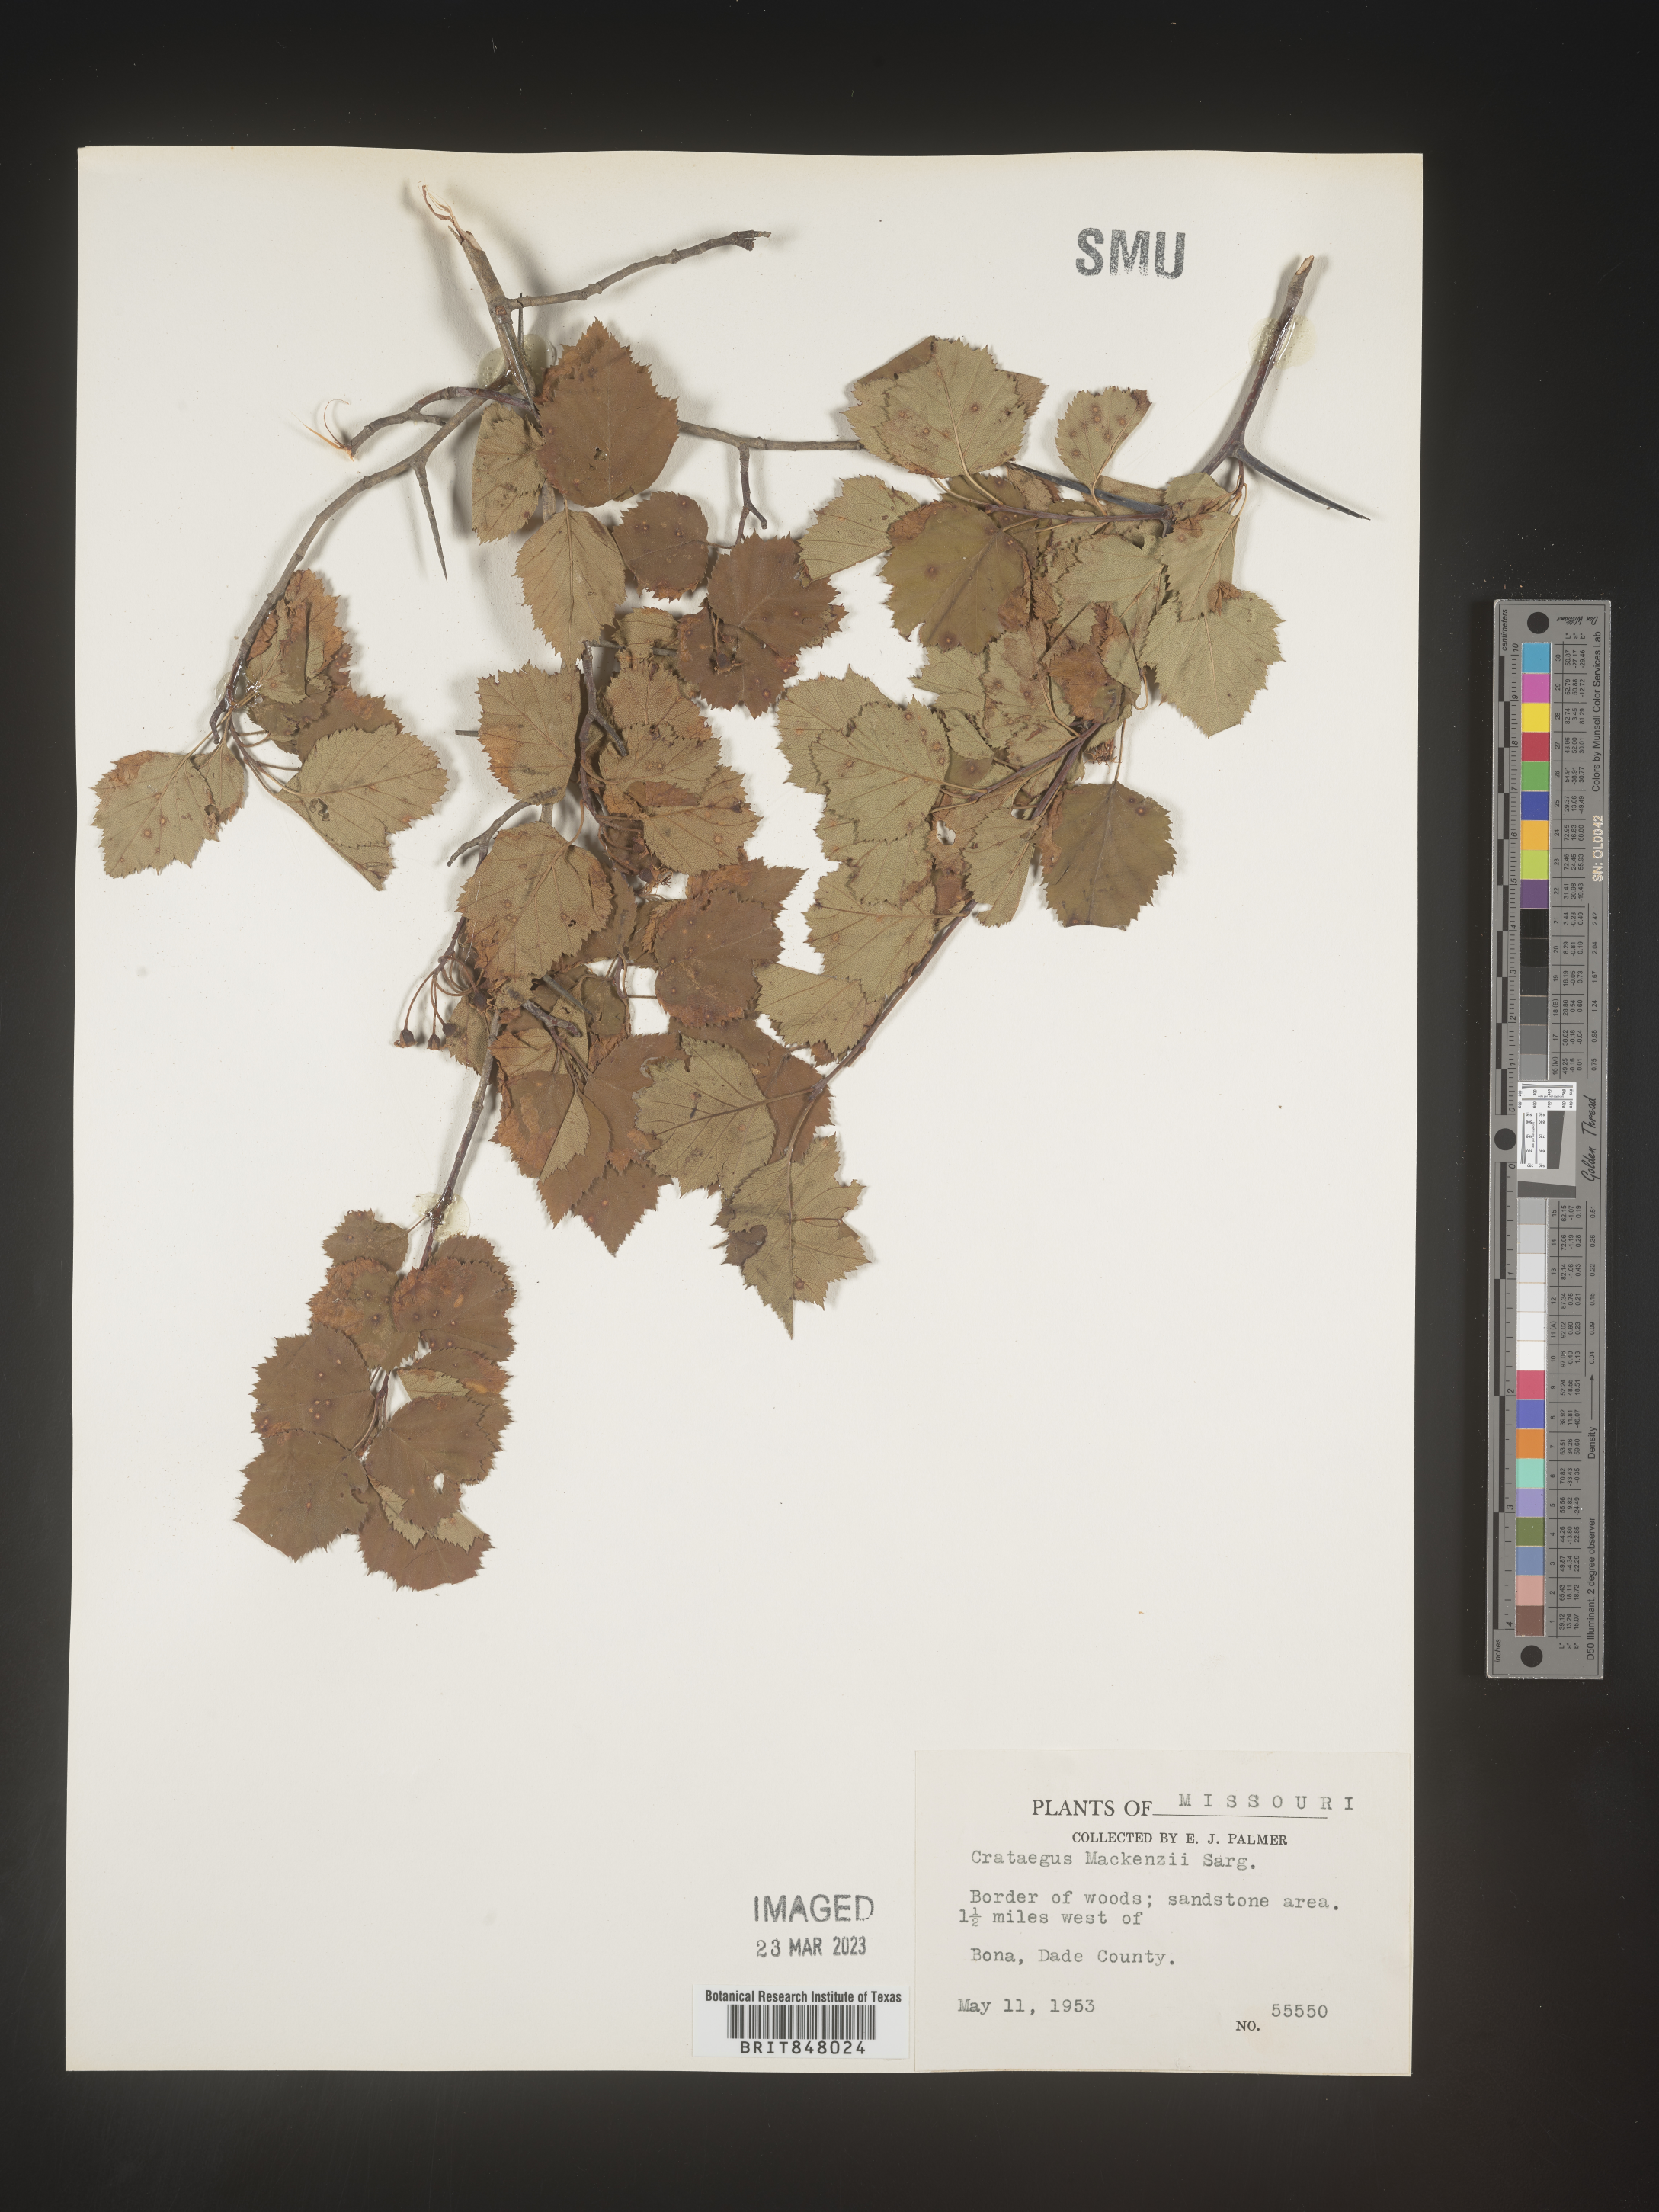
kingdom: Plantae
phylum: Tracheophyta
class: Magnoliopsida
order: Rosales
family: Rosaceae
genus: Crataegus
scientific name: Crataegus pruinosa
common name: Waxy-fruit hawthorn
